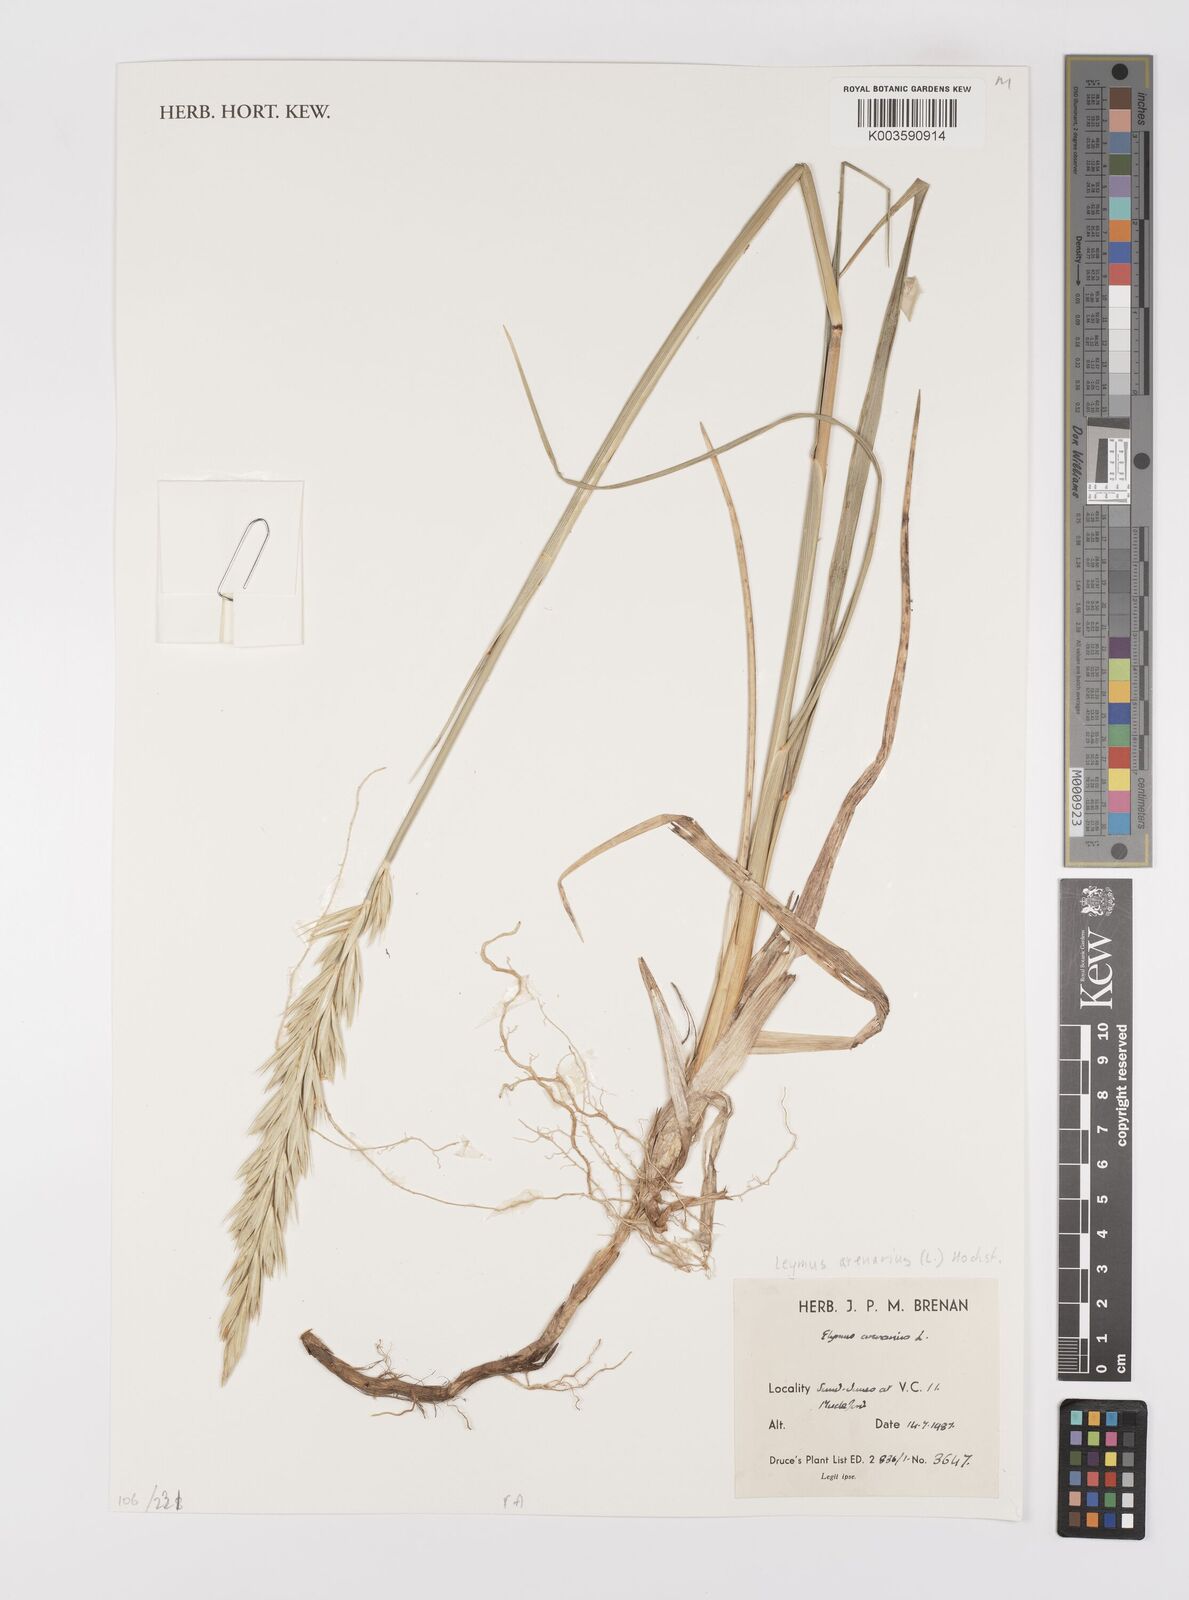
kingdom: Plantae
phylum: Tracheophyta
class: Liliopsida
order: Poales
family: Poaceae
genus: Leymus
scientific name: Leymus arenarius
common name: Lyme-grass
